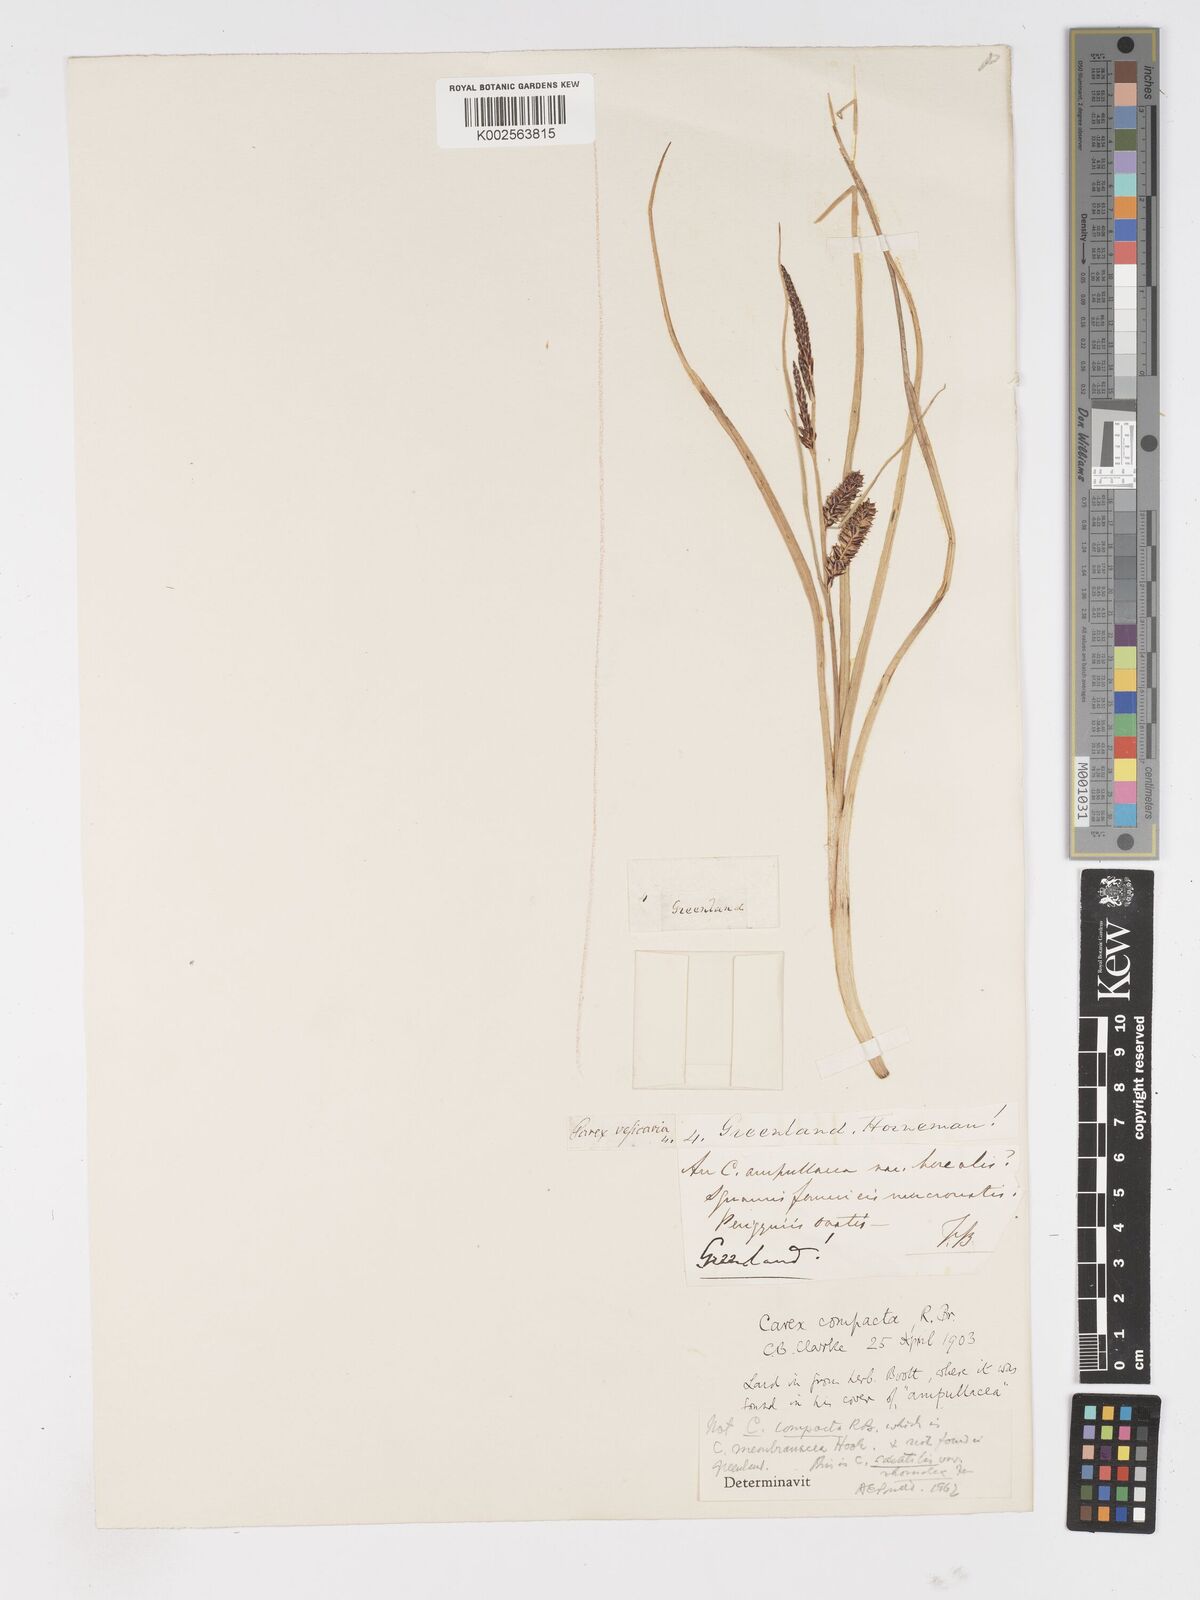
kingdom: Plantae
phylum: Tracheophyta
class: Liliopsida
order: Poales
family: Cyperaceae
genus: Carex
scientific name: Carex membranacea
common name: Fragile sedge
